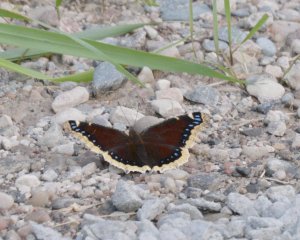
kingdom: Animalia
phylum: Arthropoda
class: Insecta
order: Lepidoptera
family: Nymphalidae
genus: Nymphalis
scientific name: Nymphalis antiopa
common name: Mourning Cloak
